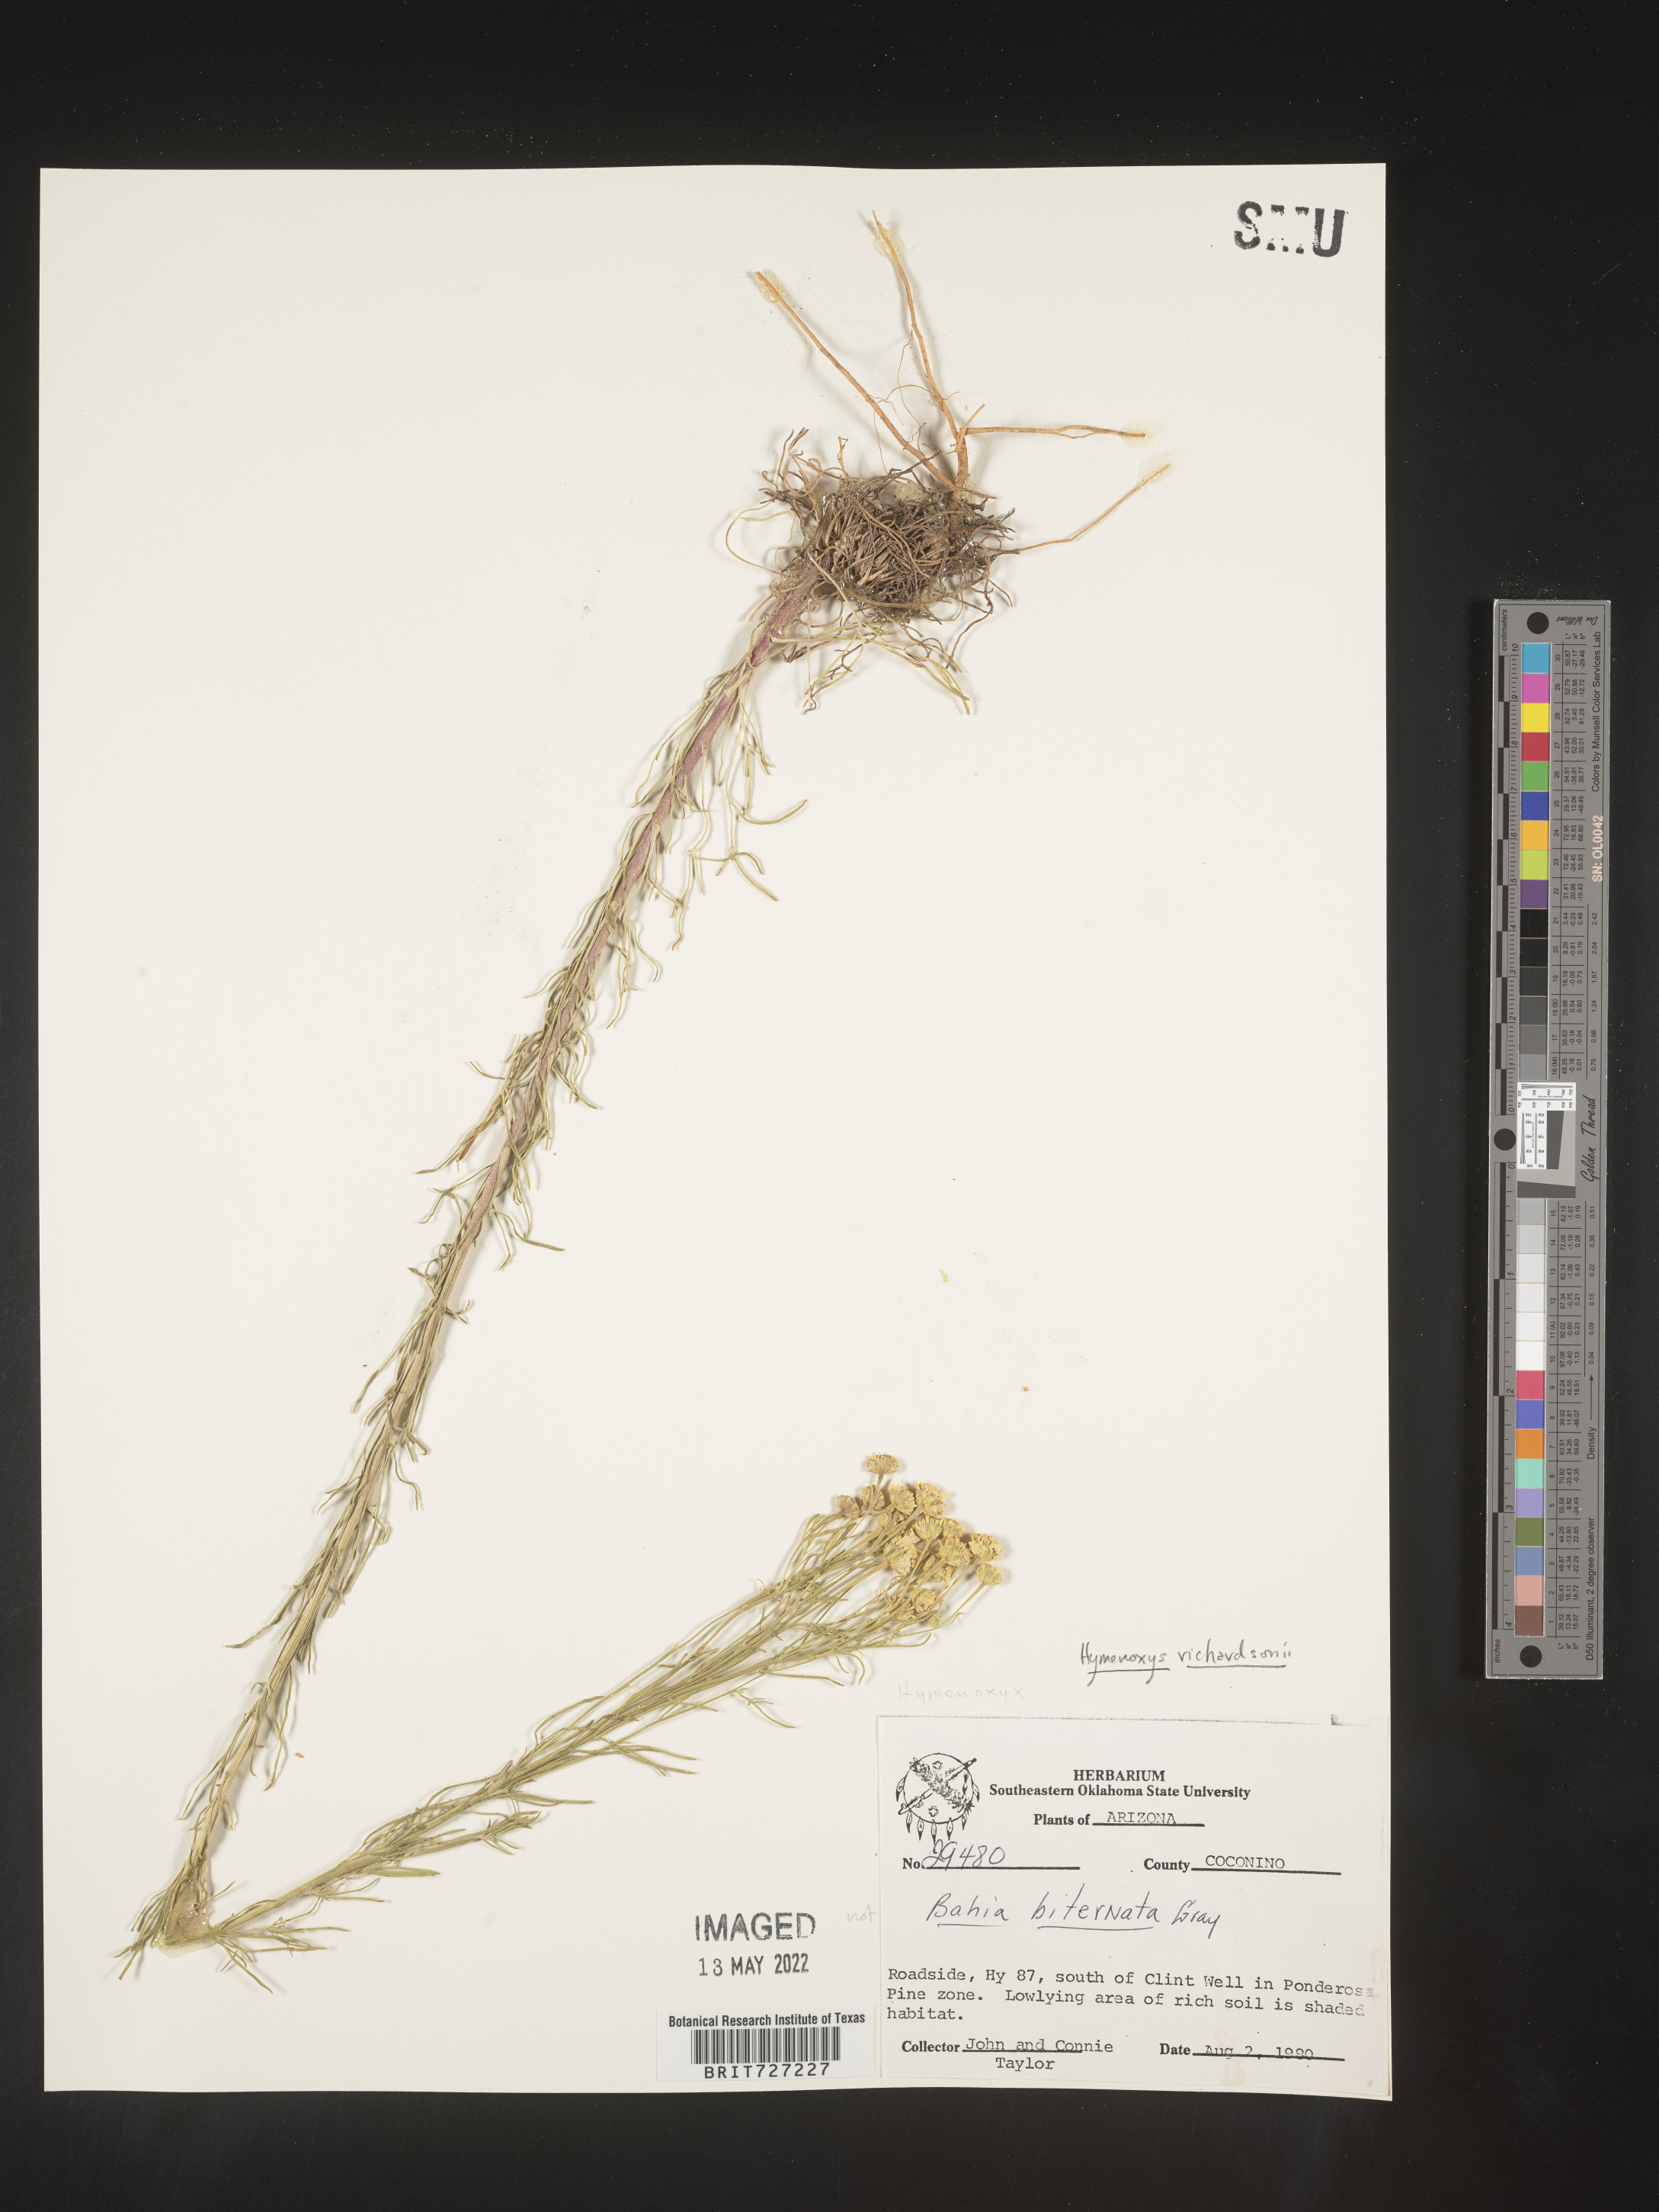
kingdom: Plantae
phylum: Tracheophyta
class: Magnoliopsida
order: Asterales
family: Asteraceae
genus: Hymenoxys
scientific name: Hymenoxys richardsonii
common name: Pingue rubberweed
